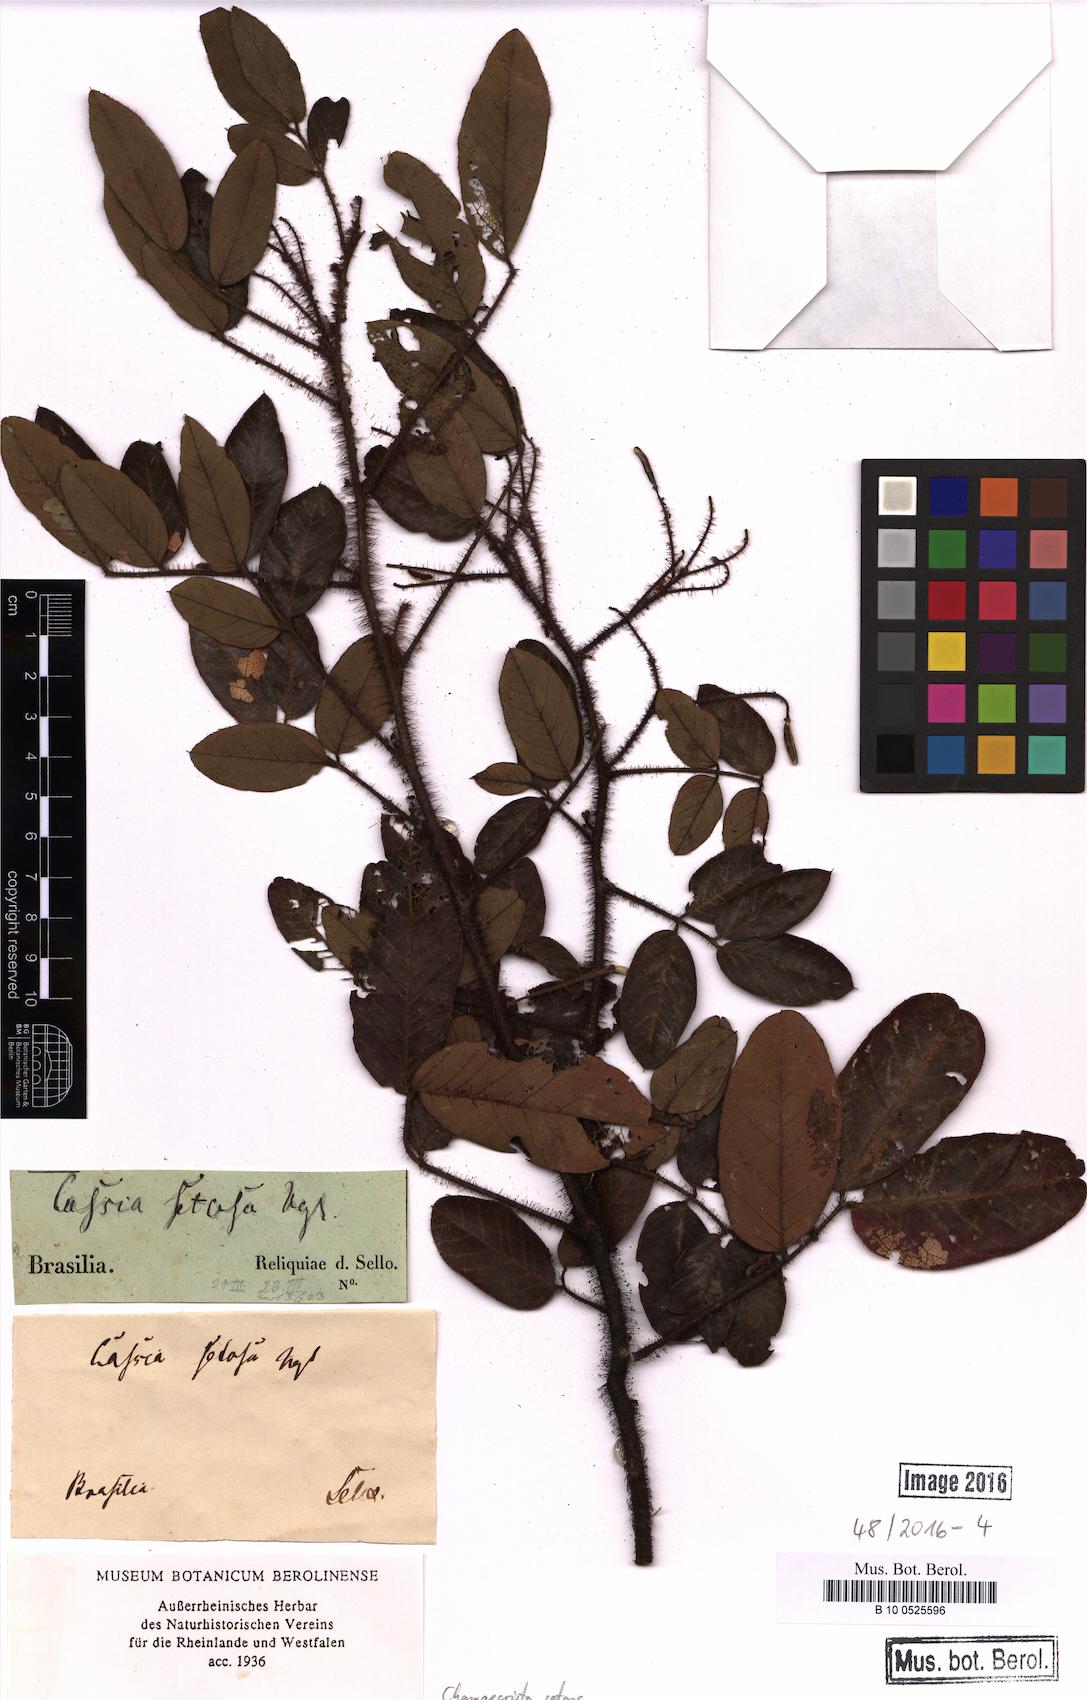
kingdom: Plantae
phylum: Tracheophyta
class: Magnoliopsida
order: Fabales
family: Fabaceae
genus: Chamaecrista
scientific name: Chamaecrista setosa
